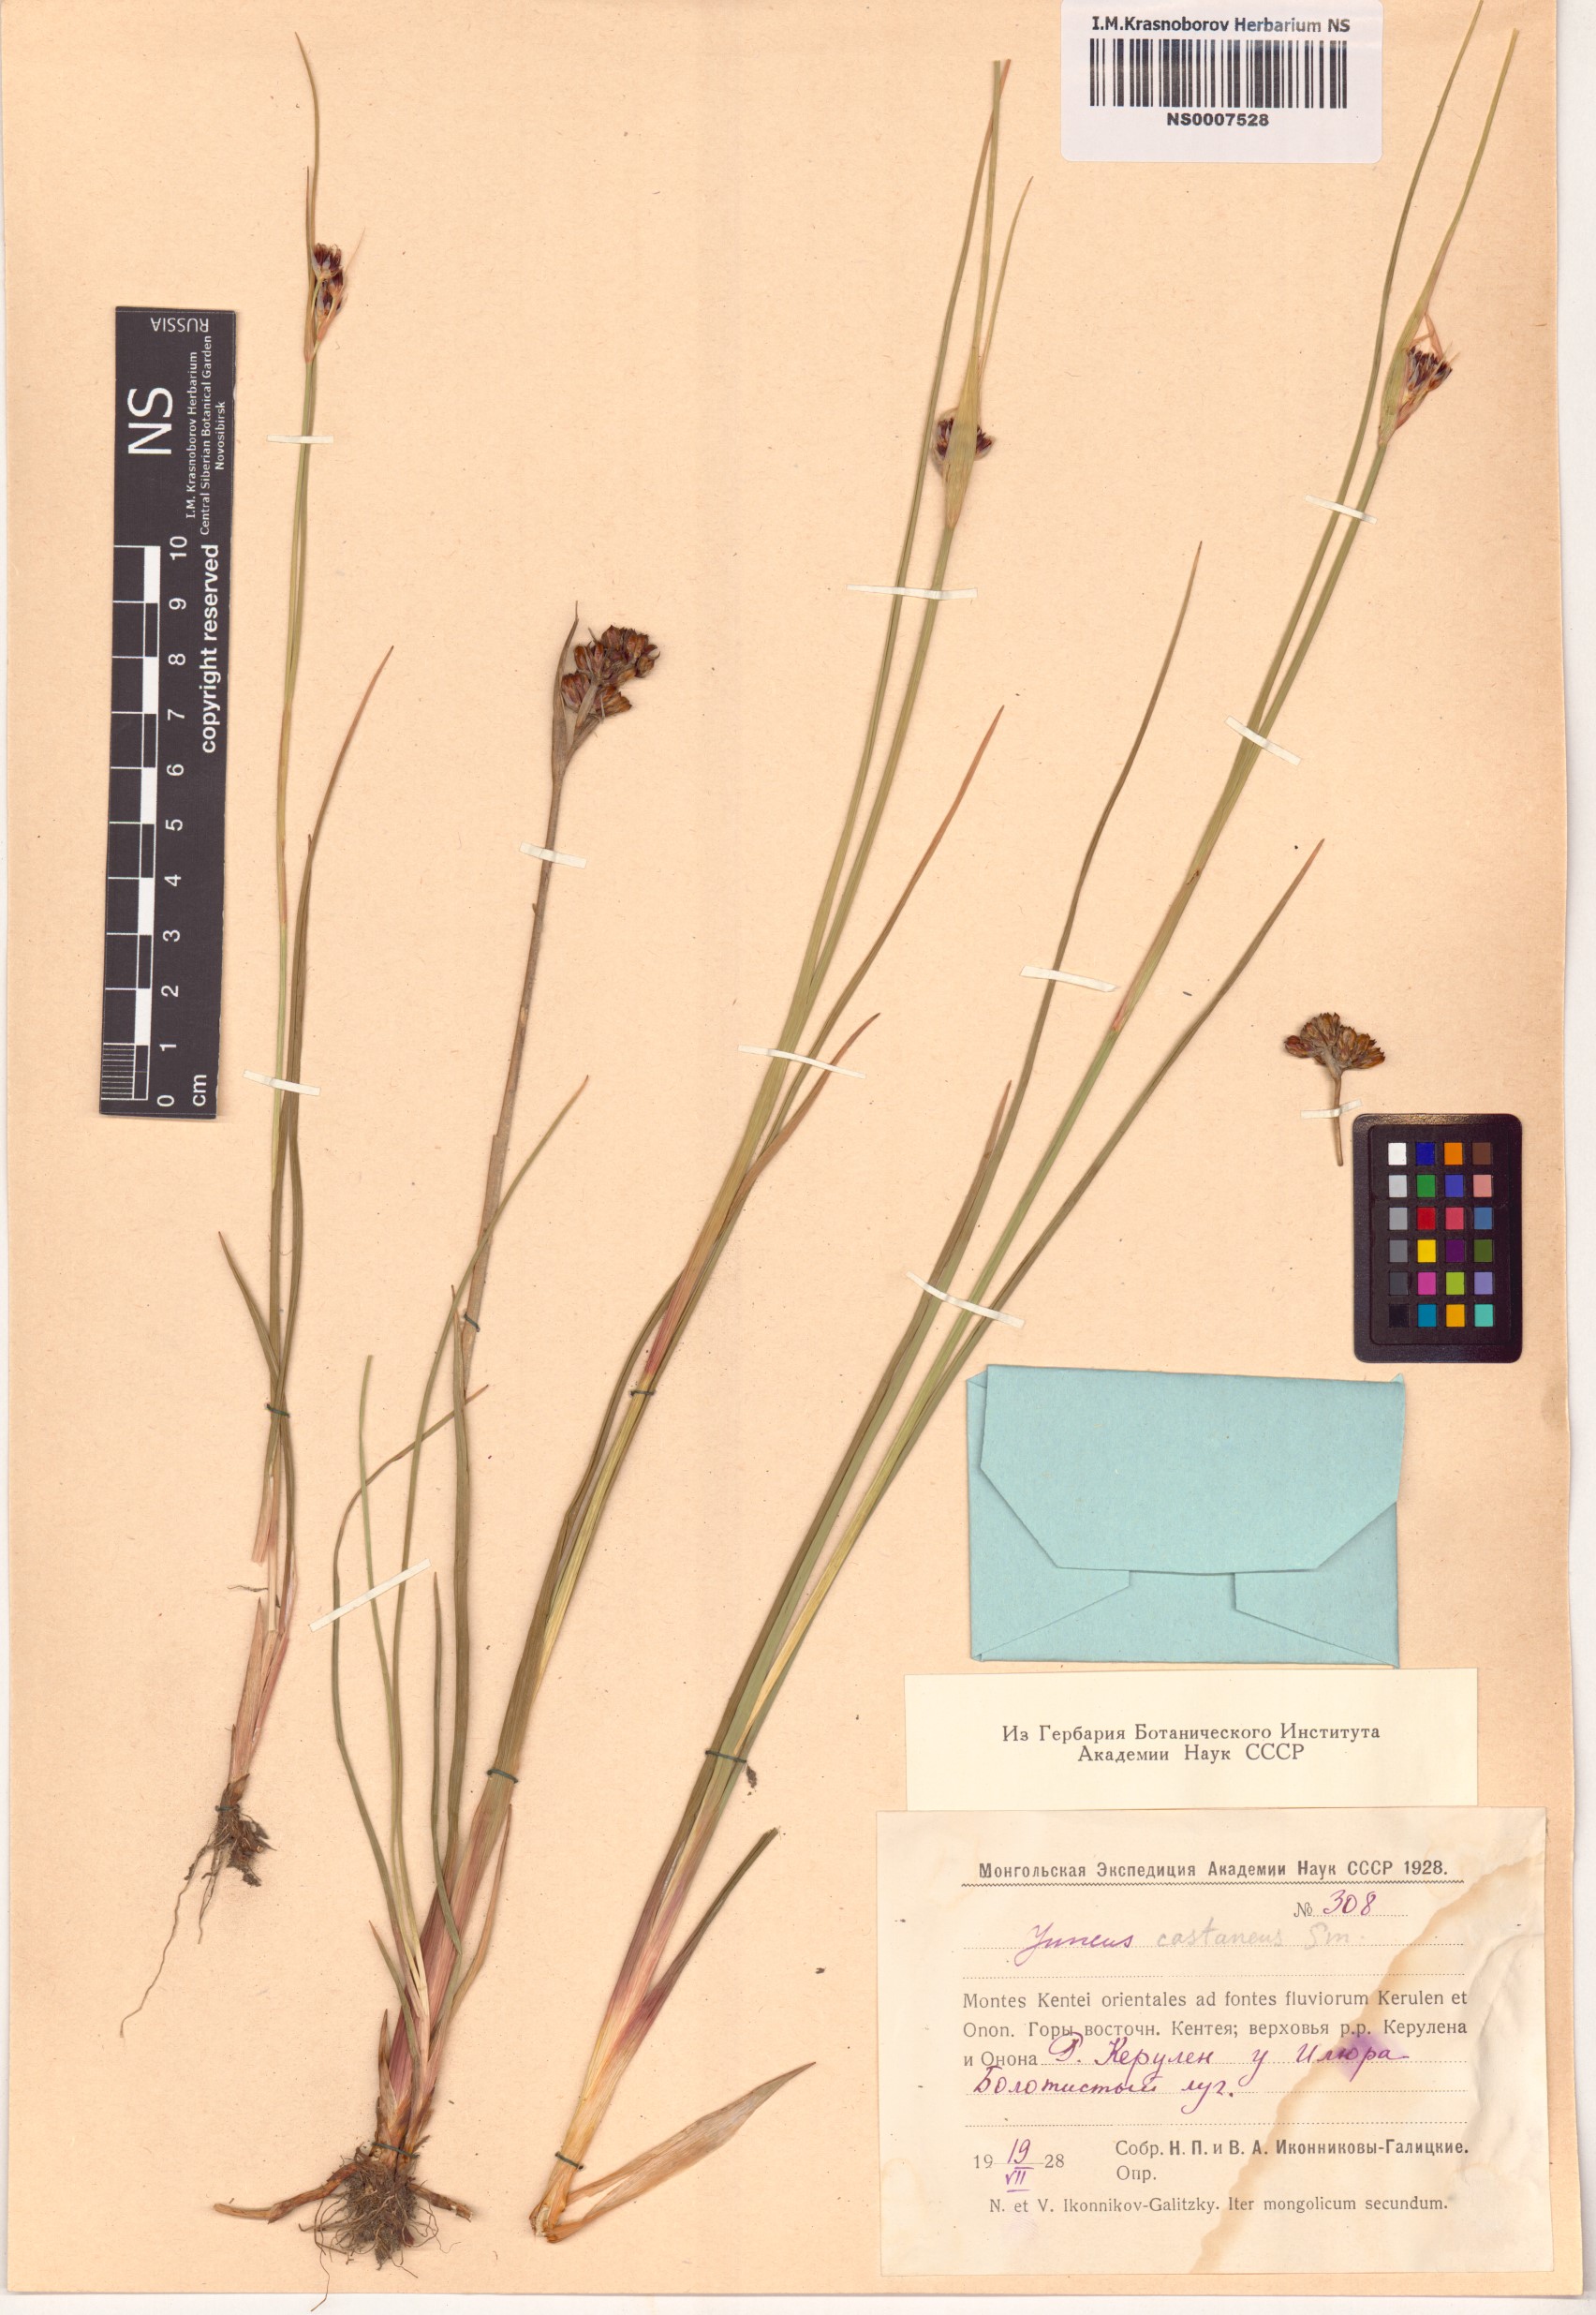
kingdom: Plantae
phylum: Tracheophyta
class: Liliopsida
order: Poales
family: Juncaceae
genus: Juncus
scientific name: Juncus castaneus
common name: Chestnut rush
